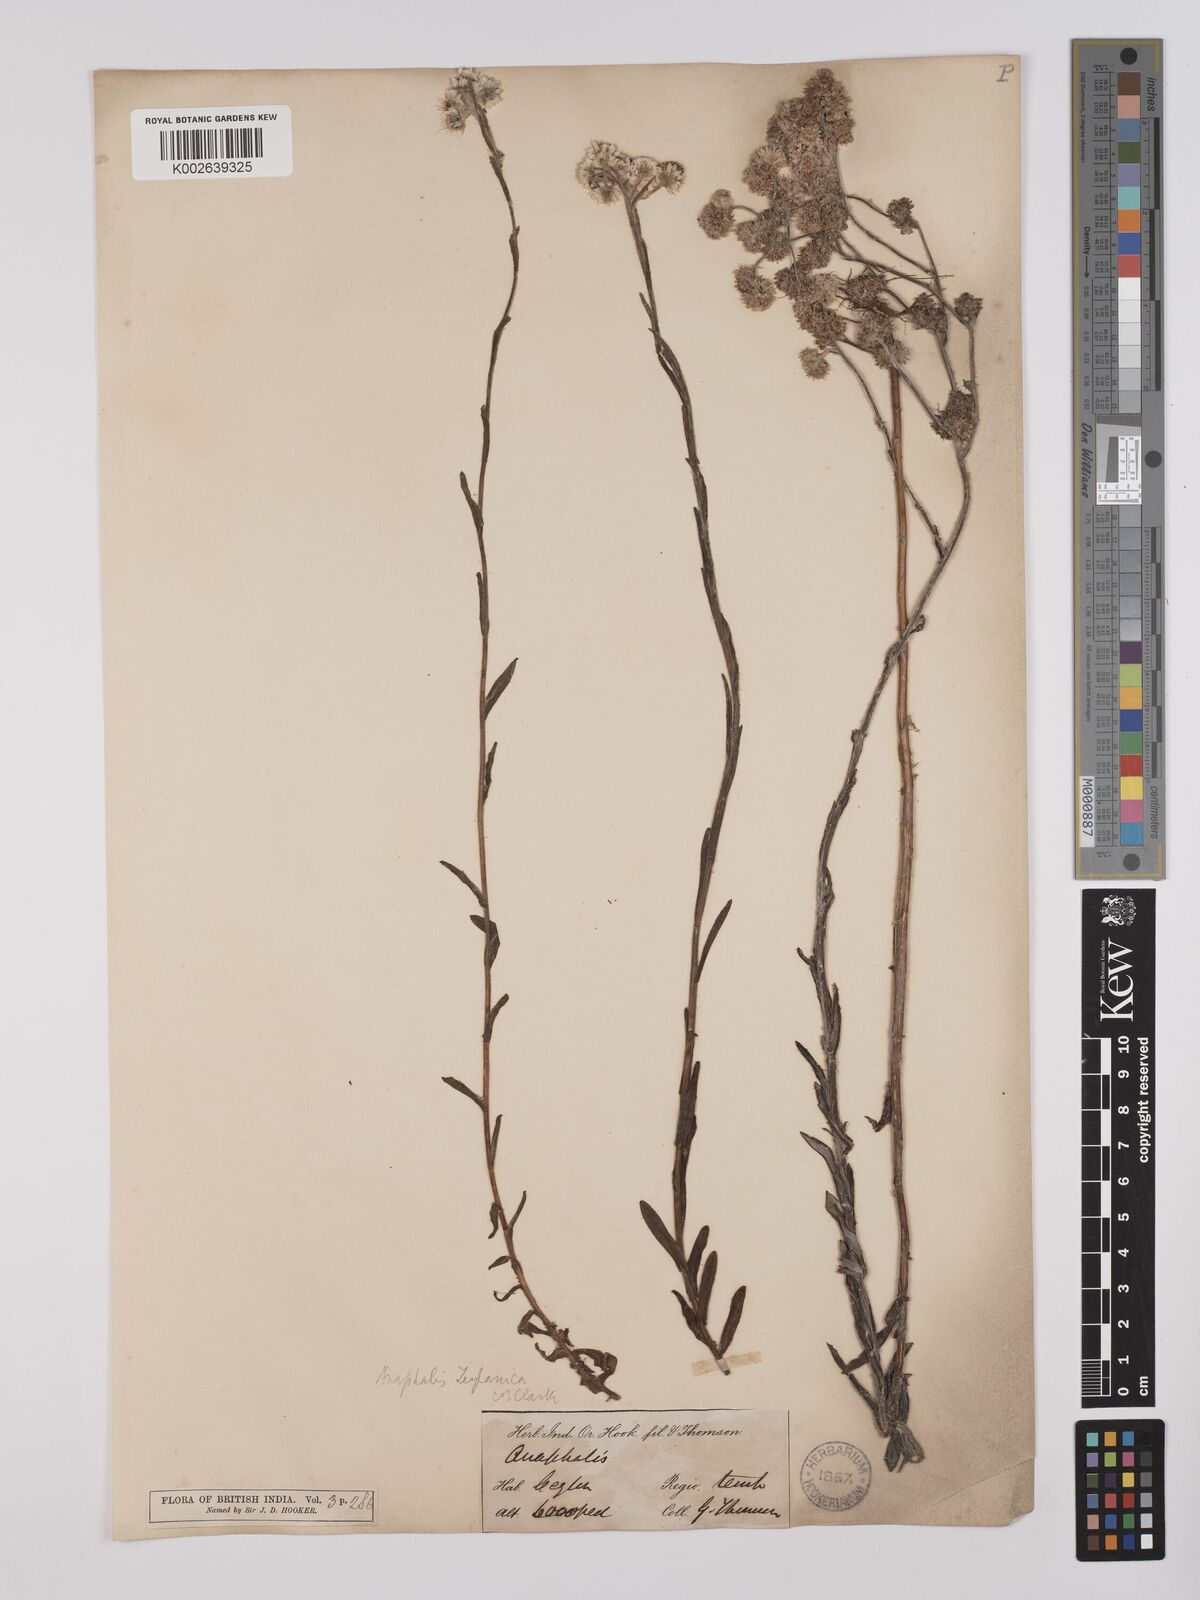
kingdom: Plantae
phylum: Tracheophyta
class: Magnoliopsida
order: Asterales
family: Asteraceae
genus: Anaphalis
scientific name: Anaphalis zeylanica
